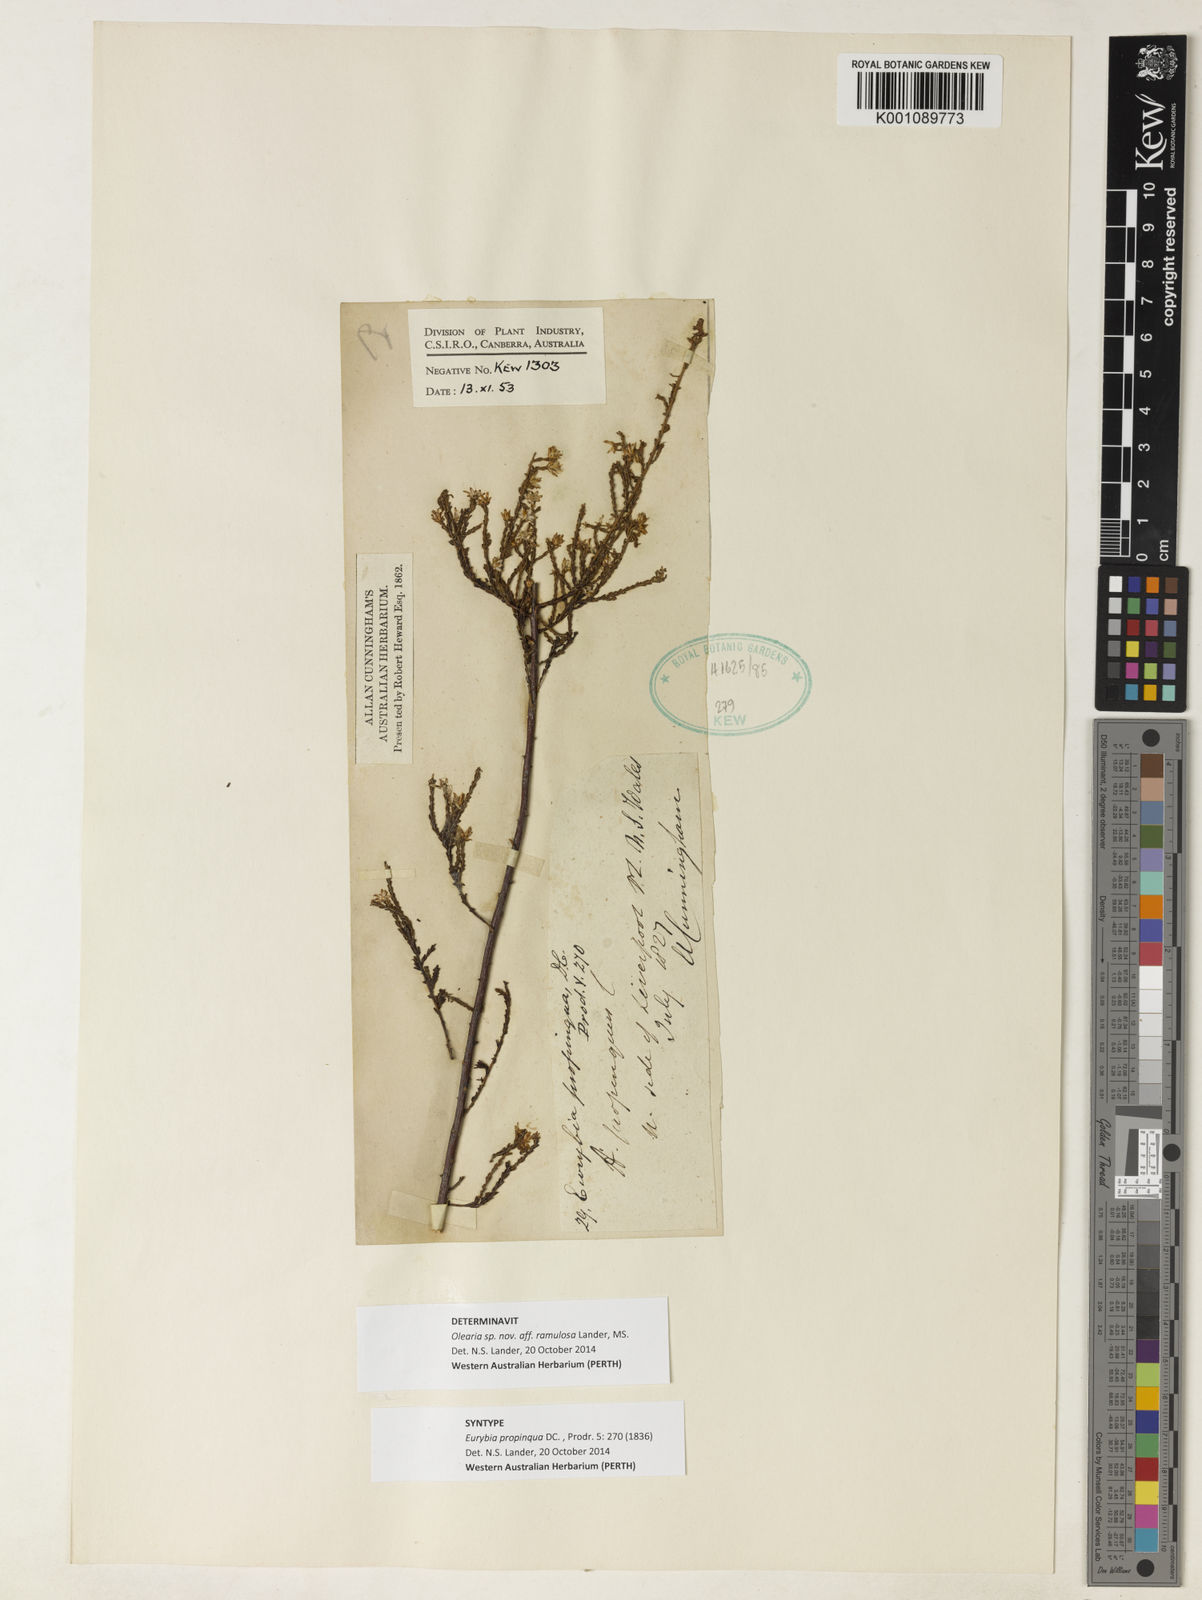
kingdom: Plantae
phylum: Tracheophyta
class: Magnoliopsida
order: Asterales
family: Asteraceae
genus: Olearia
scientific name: Olearia ramulosa
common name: Twiggy daisybush
